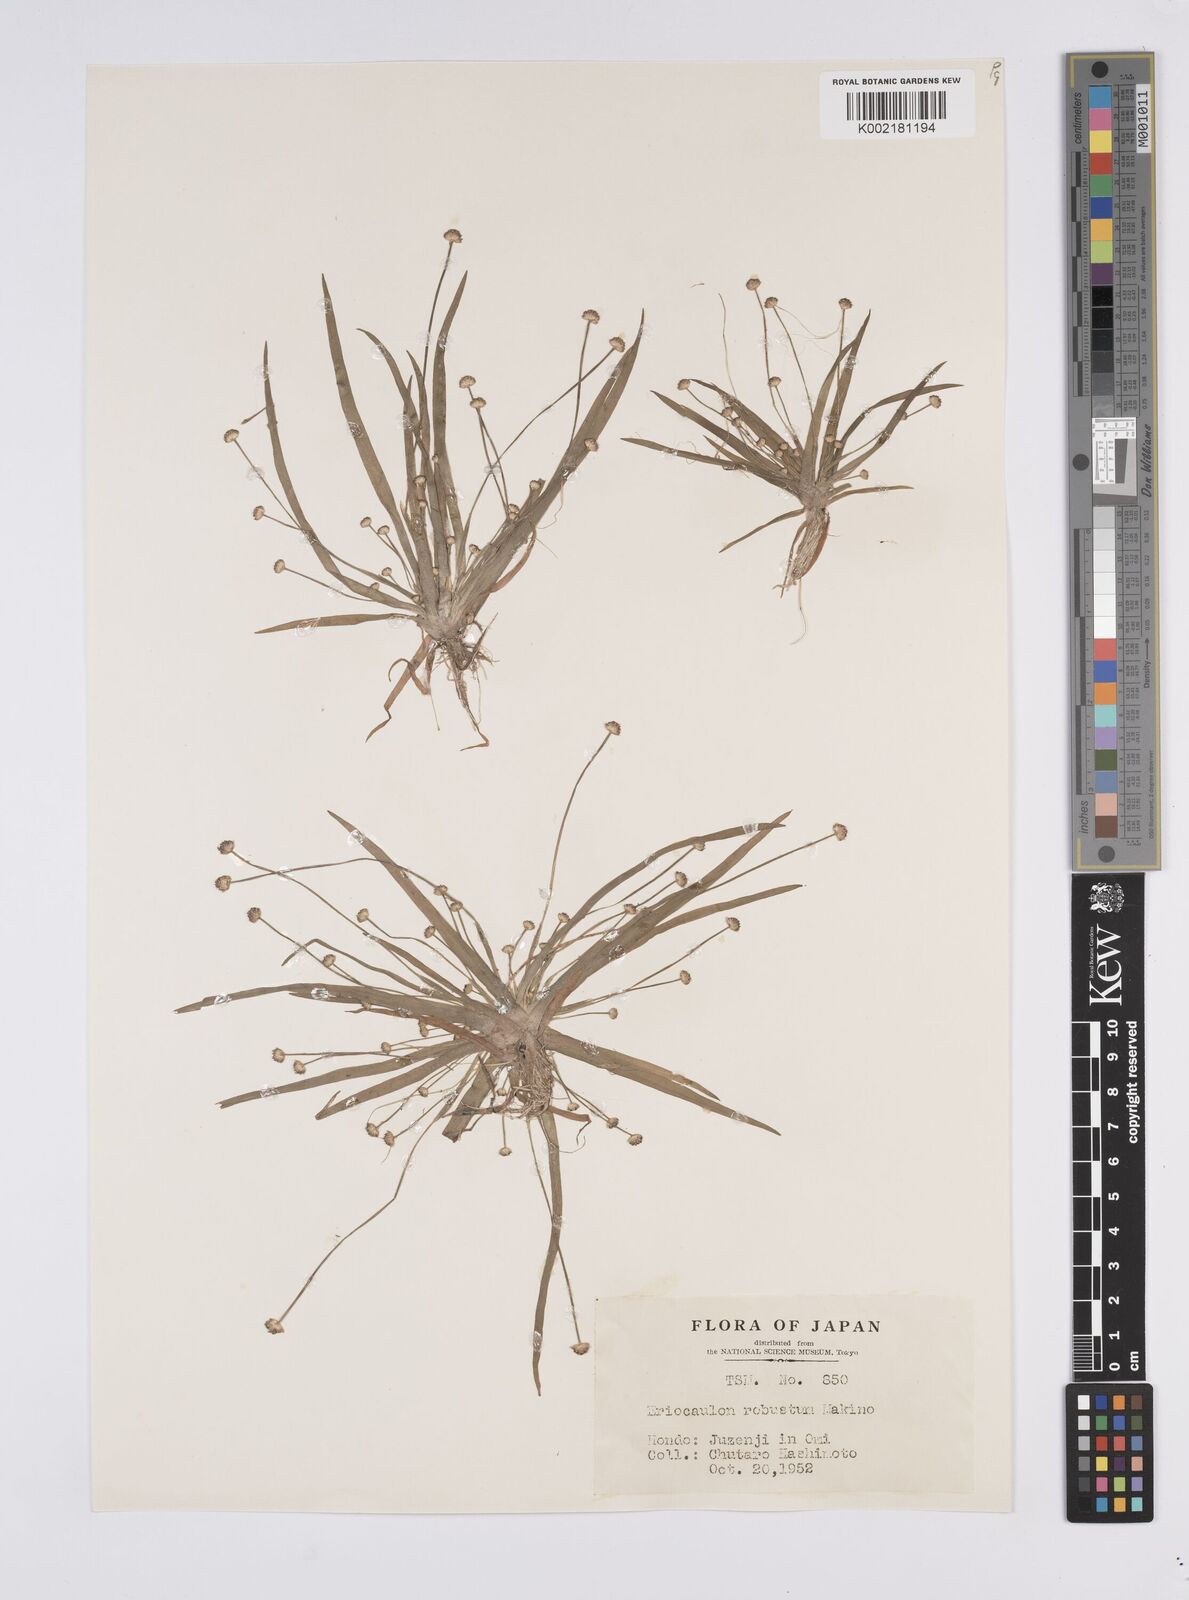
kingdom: Plantae
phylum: Tracheophyta
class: Liliopsida
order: Poales
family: Eriocaulaceae
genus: Eriocaulon
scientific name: Eriocaulon alpestre
